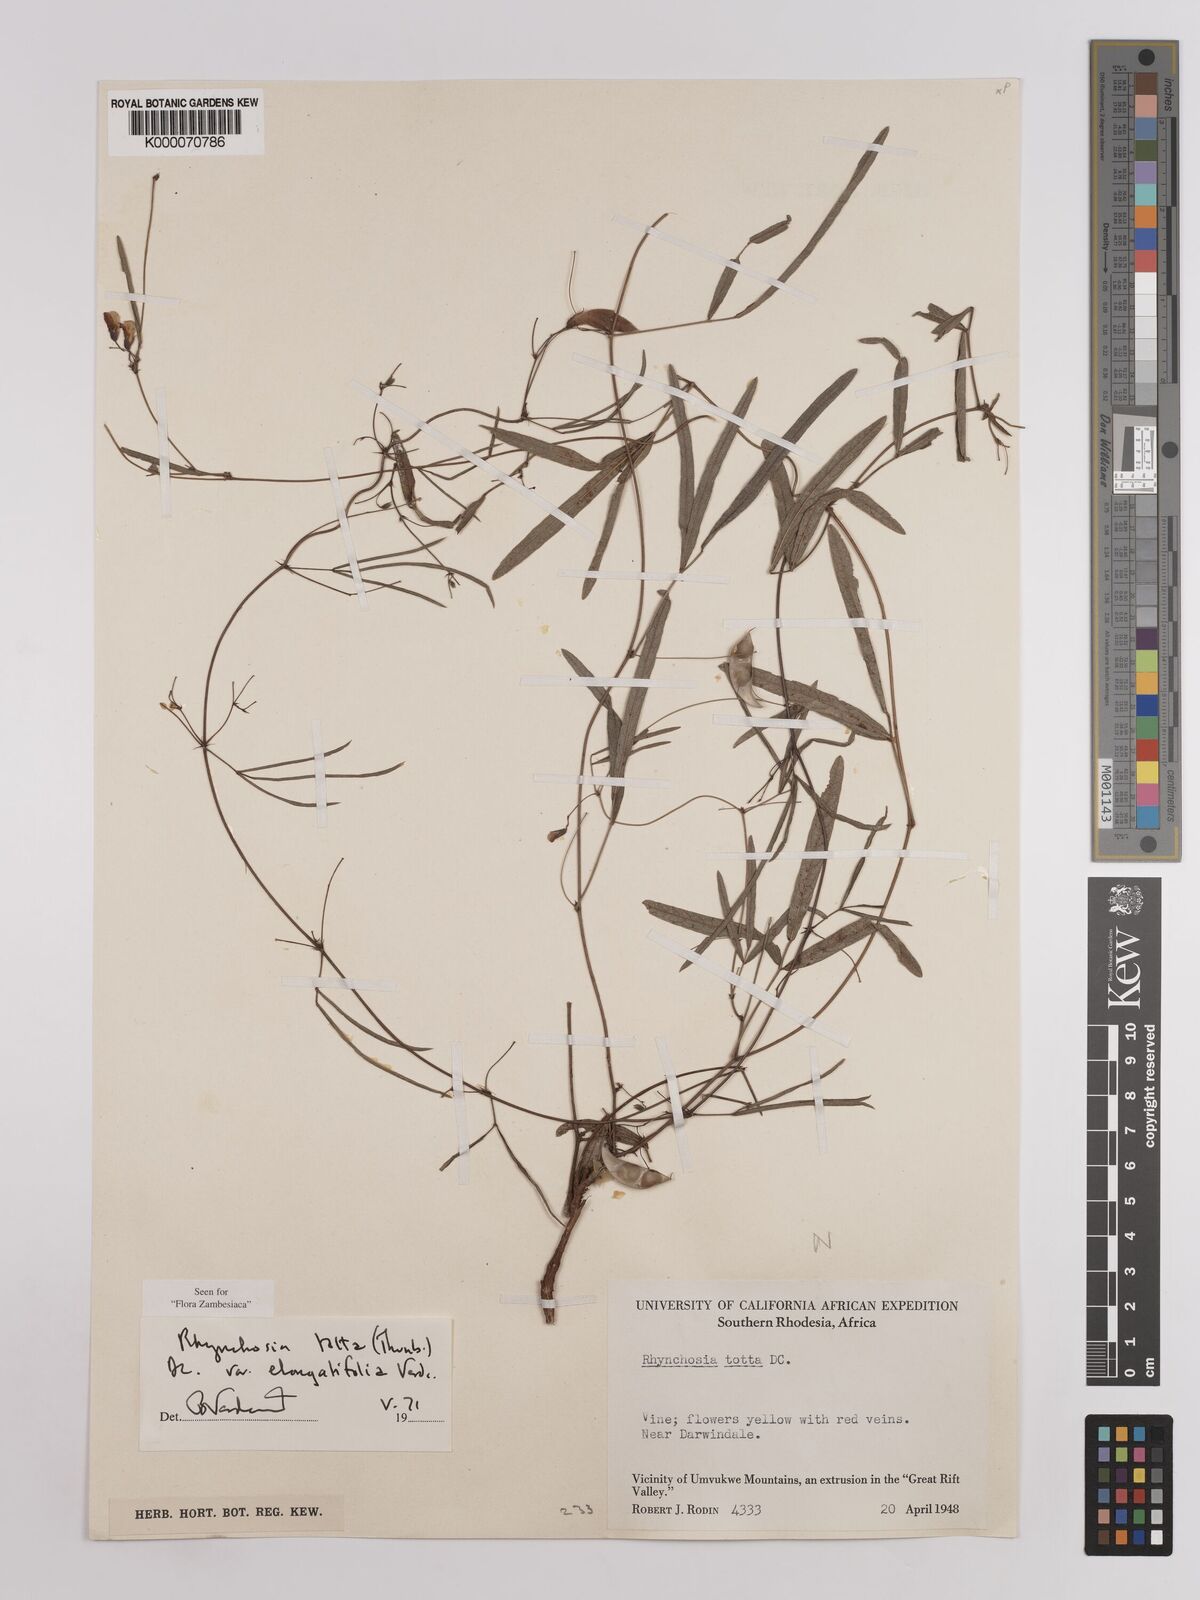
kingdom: Plantae
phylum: Tracheophyta
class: Magnoliopsida
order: Fabales
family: Fabaceae
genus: Rhynchosia
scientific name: Rhynchosia totta
